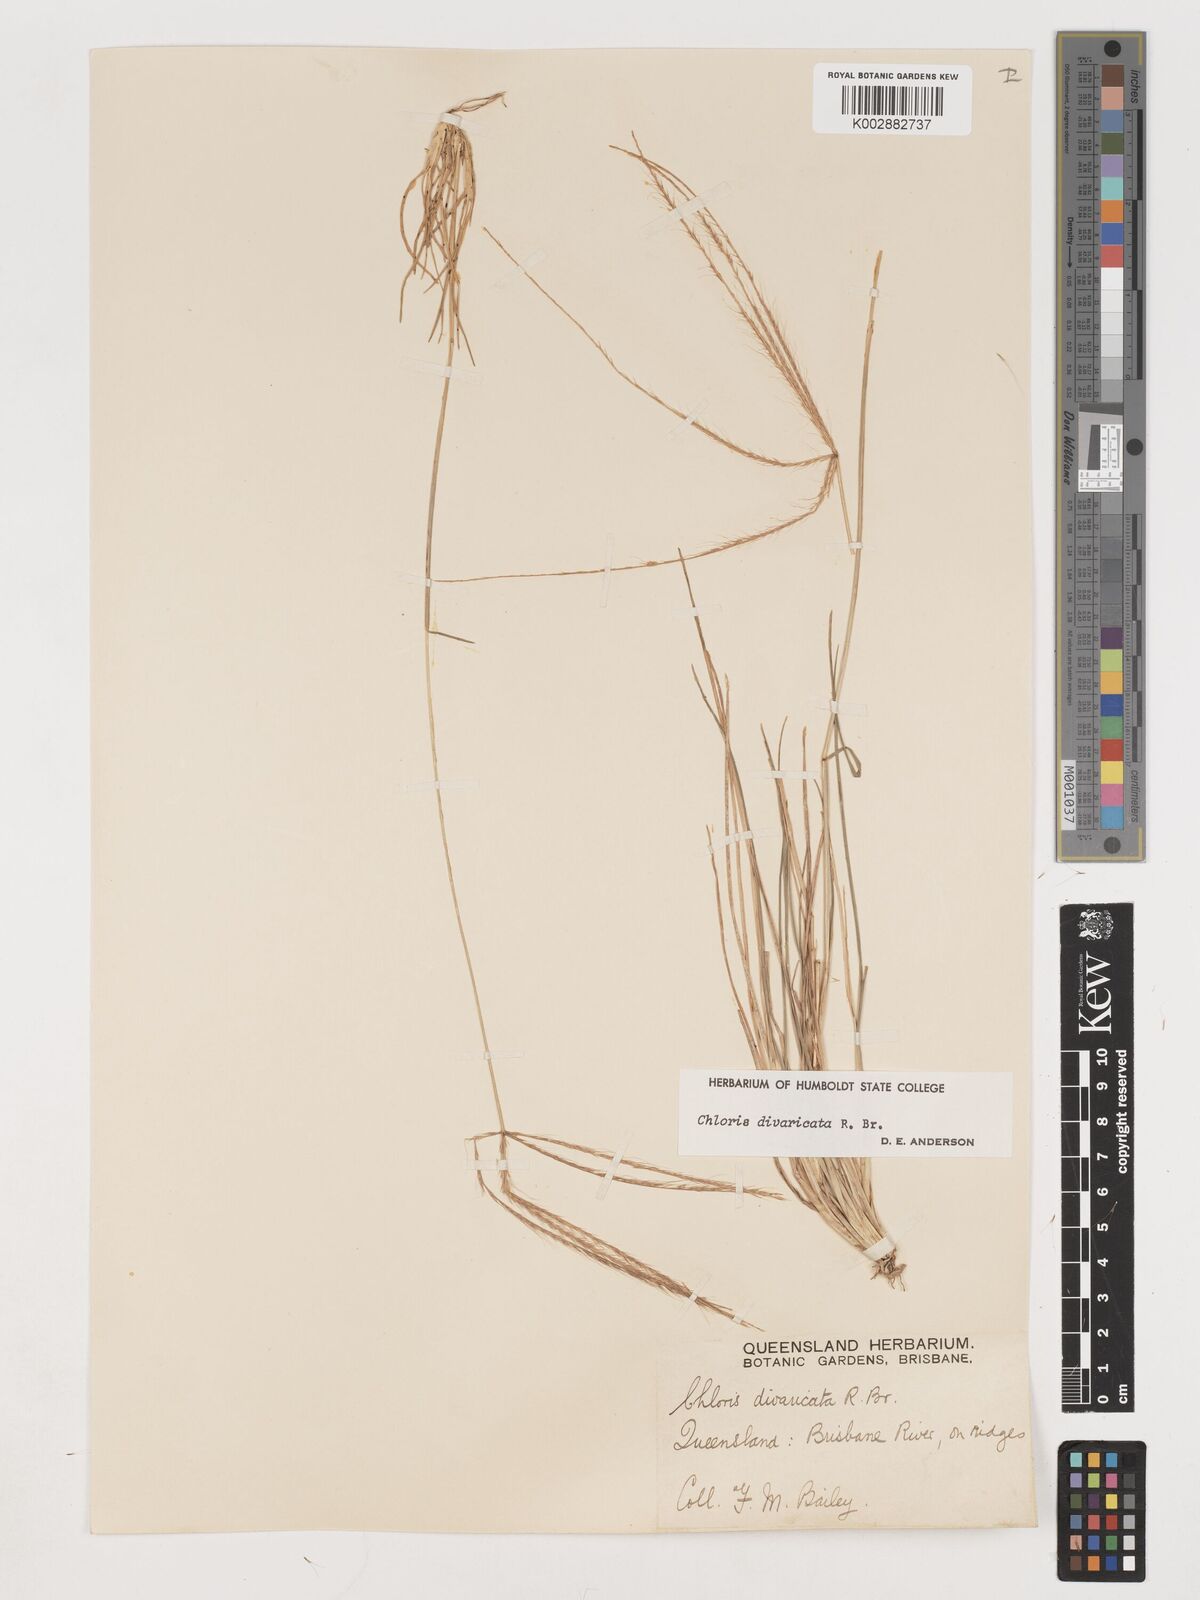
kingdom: Plantae
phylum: Tracheophyta
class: Liliopsida
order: Poales
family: Poaceae
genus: Chloris
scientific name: Chloris divaricata
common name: Spreading windmill grass
